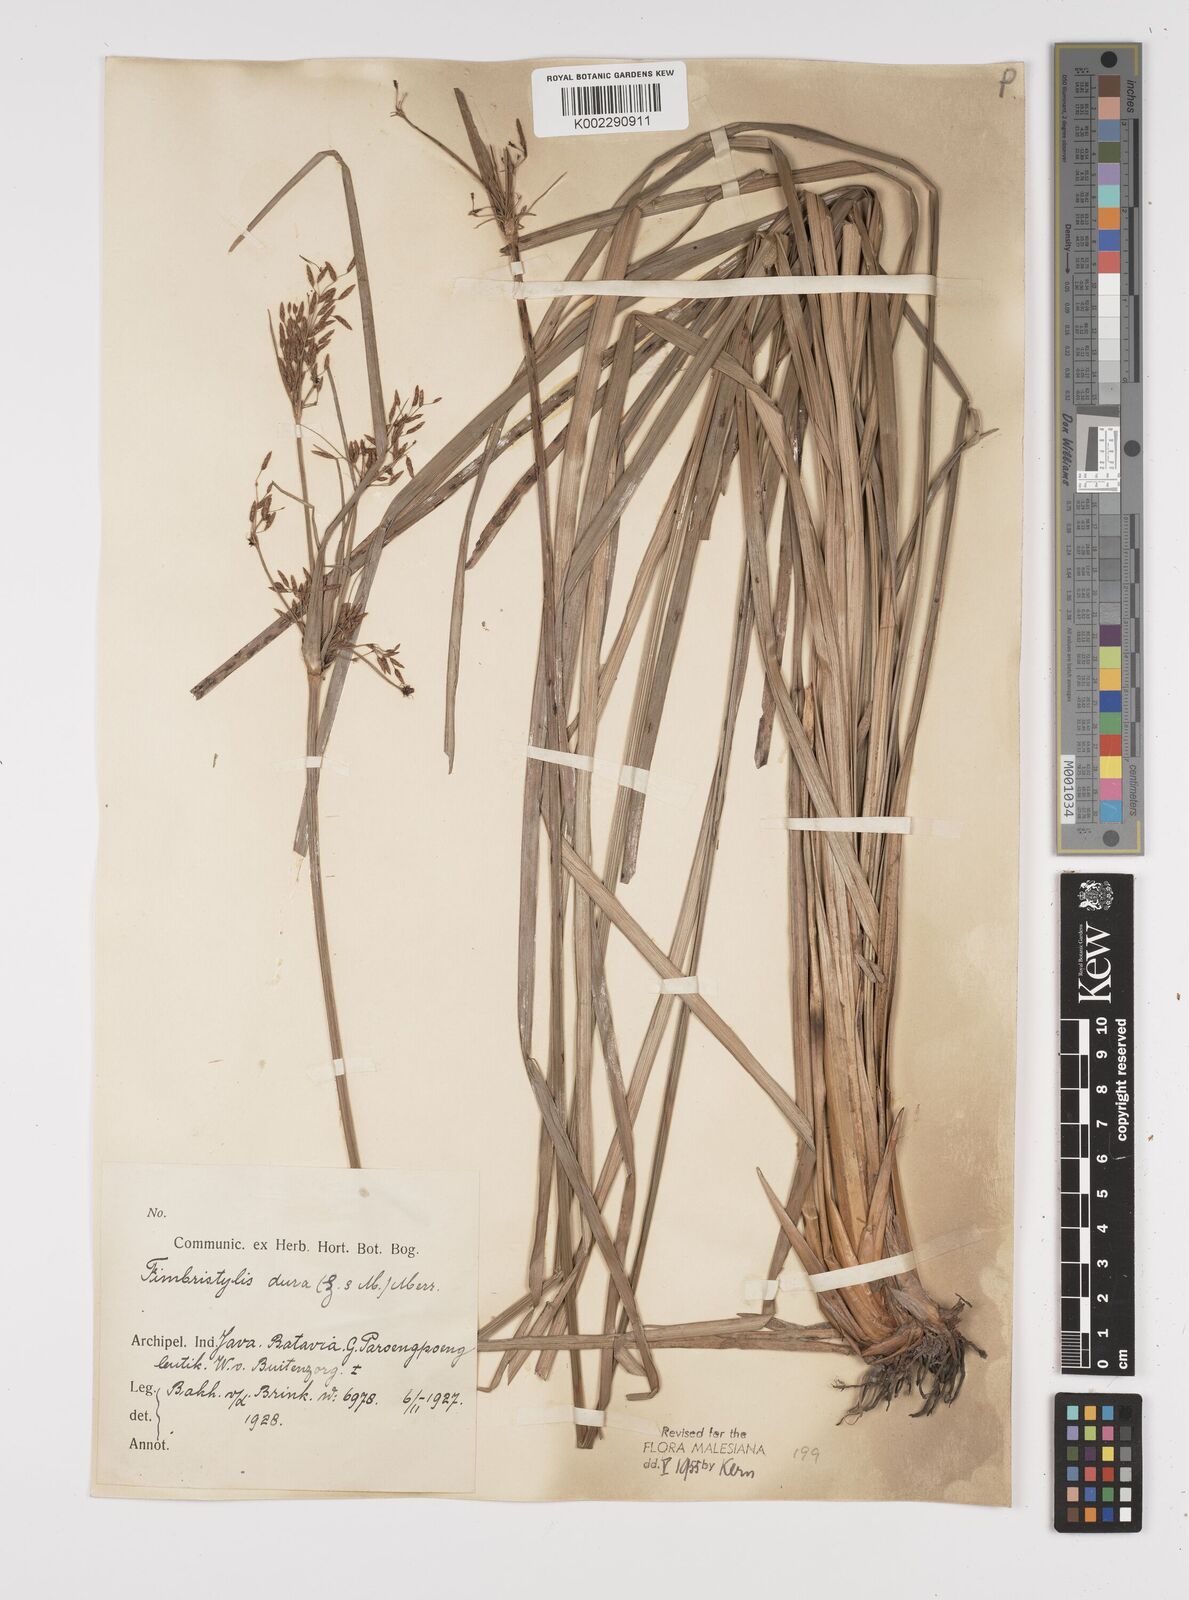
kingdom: Plantae
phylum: Tracheophyta
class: Liliopsida
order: Poales
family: Cyperaceae
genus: Fimbristylis
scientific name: Fimbristylis dura
